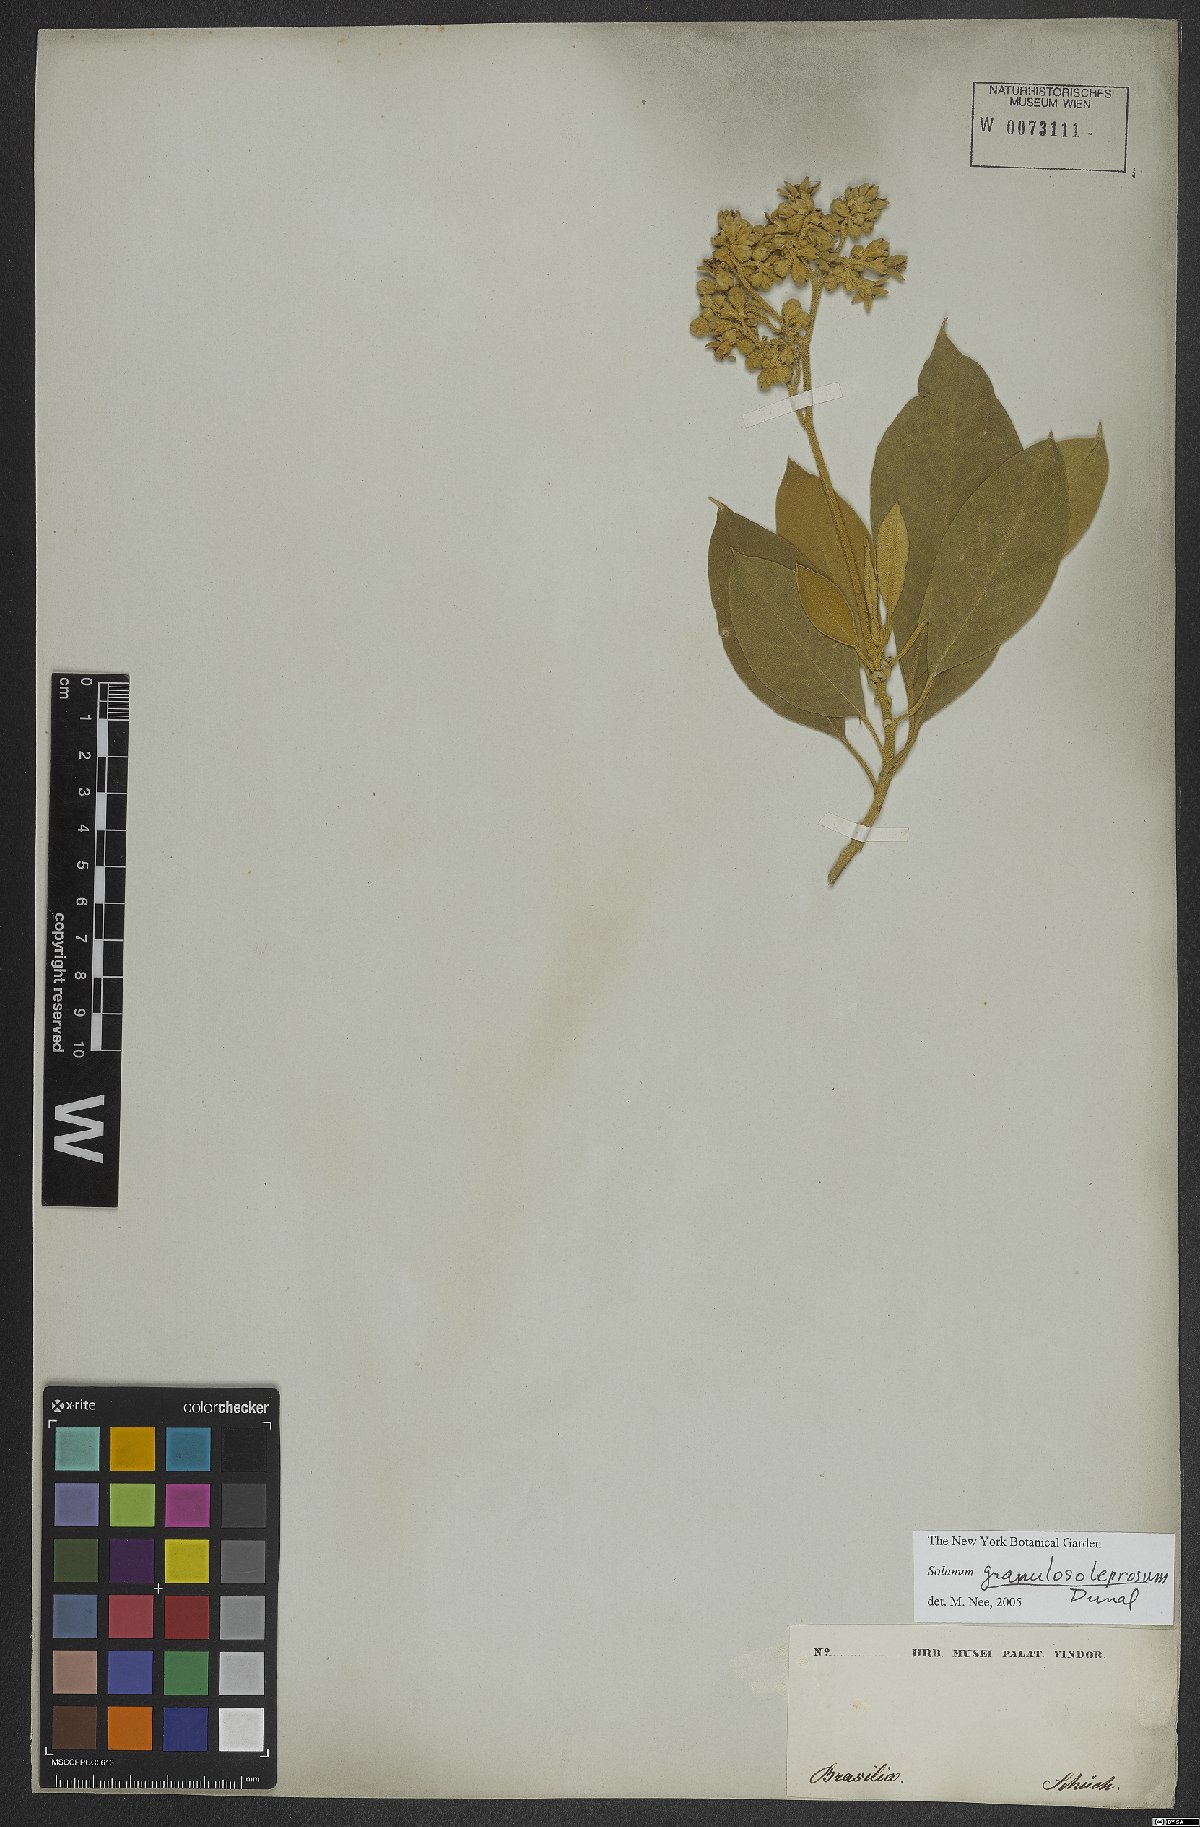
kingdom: Plantae
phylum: Tracheophyta
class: Magnoliopsida
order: Solanales
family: Solanaceae
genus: Solanum
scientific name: Solanum granulosoleprosum
